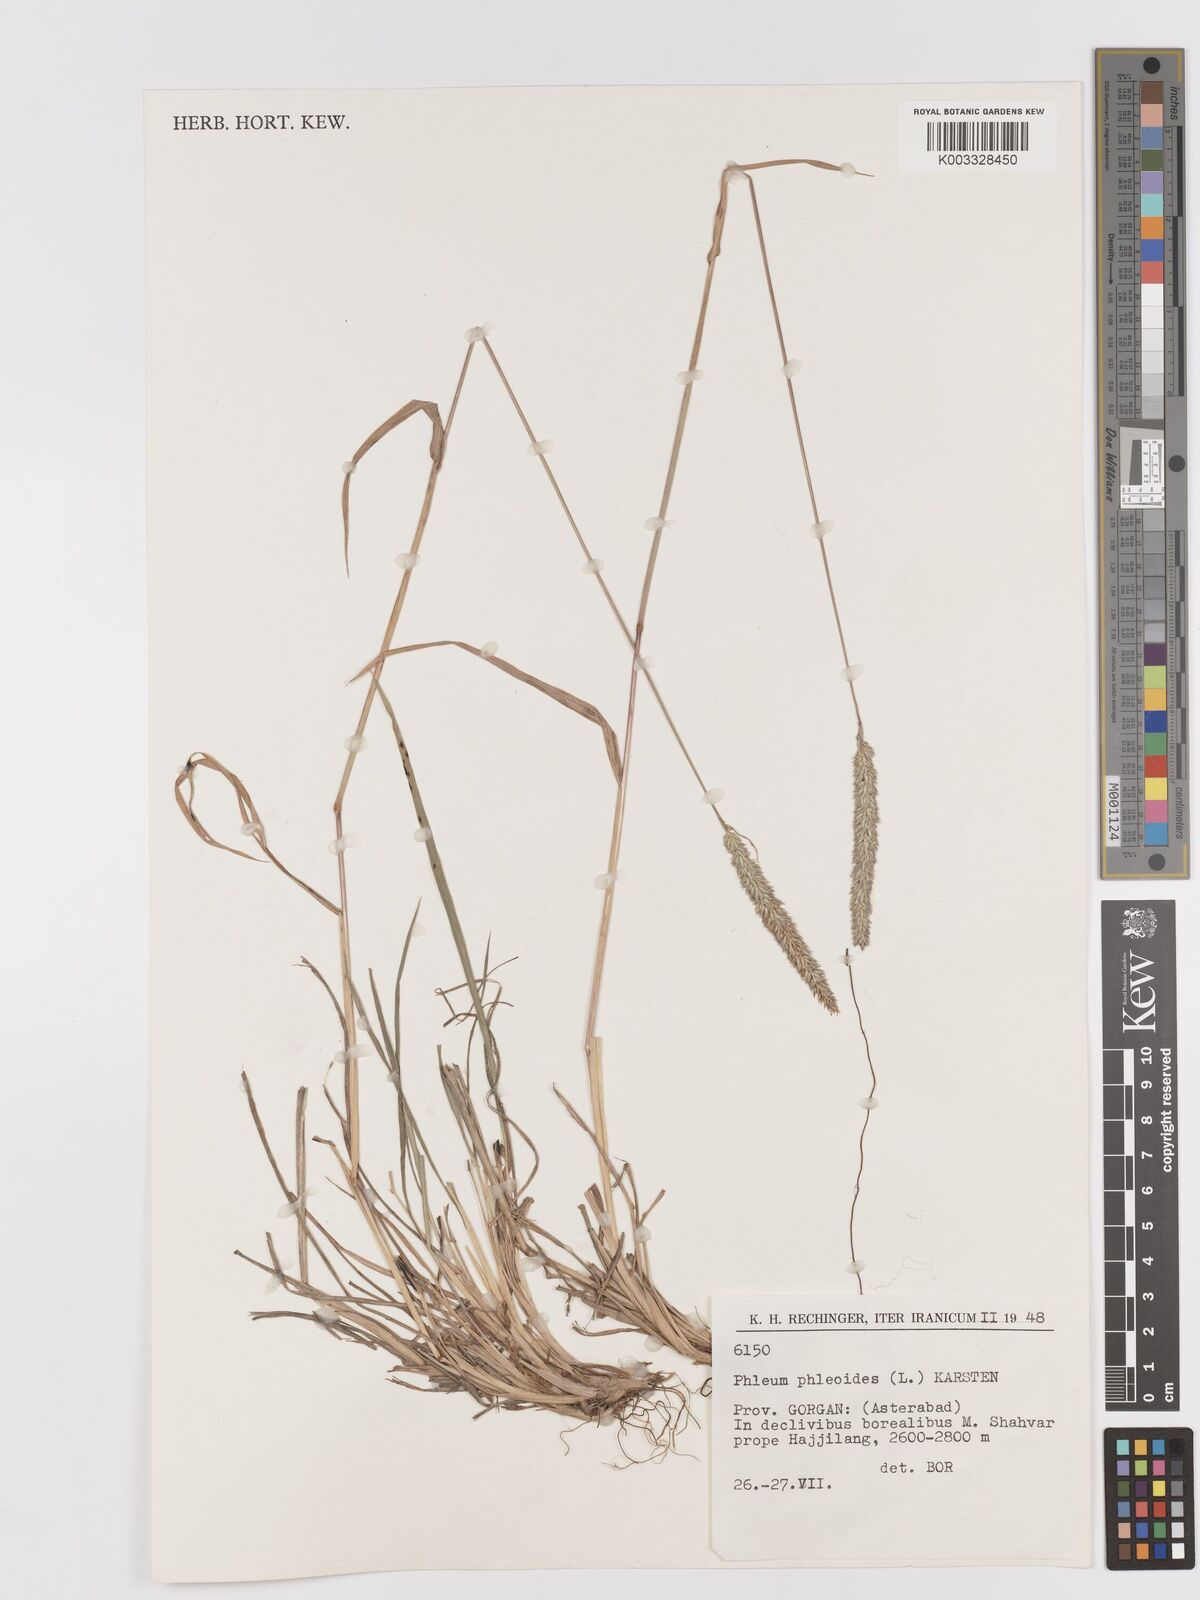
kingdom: Plantae
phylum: Tracheophyta
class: Liliopsida
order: Poales
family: Poaceae
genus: Phleum
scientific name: Phleum phleoides
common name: Purple-stem cat's-tail
